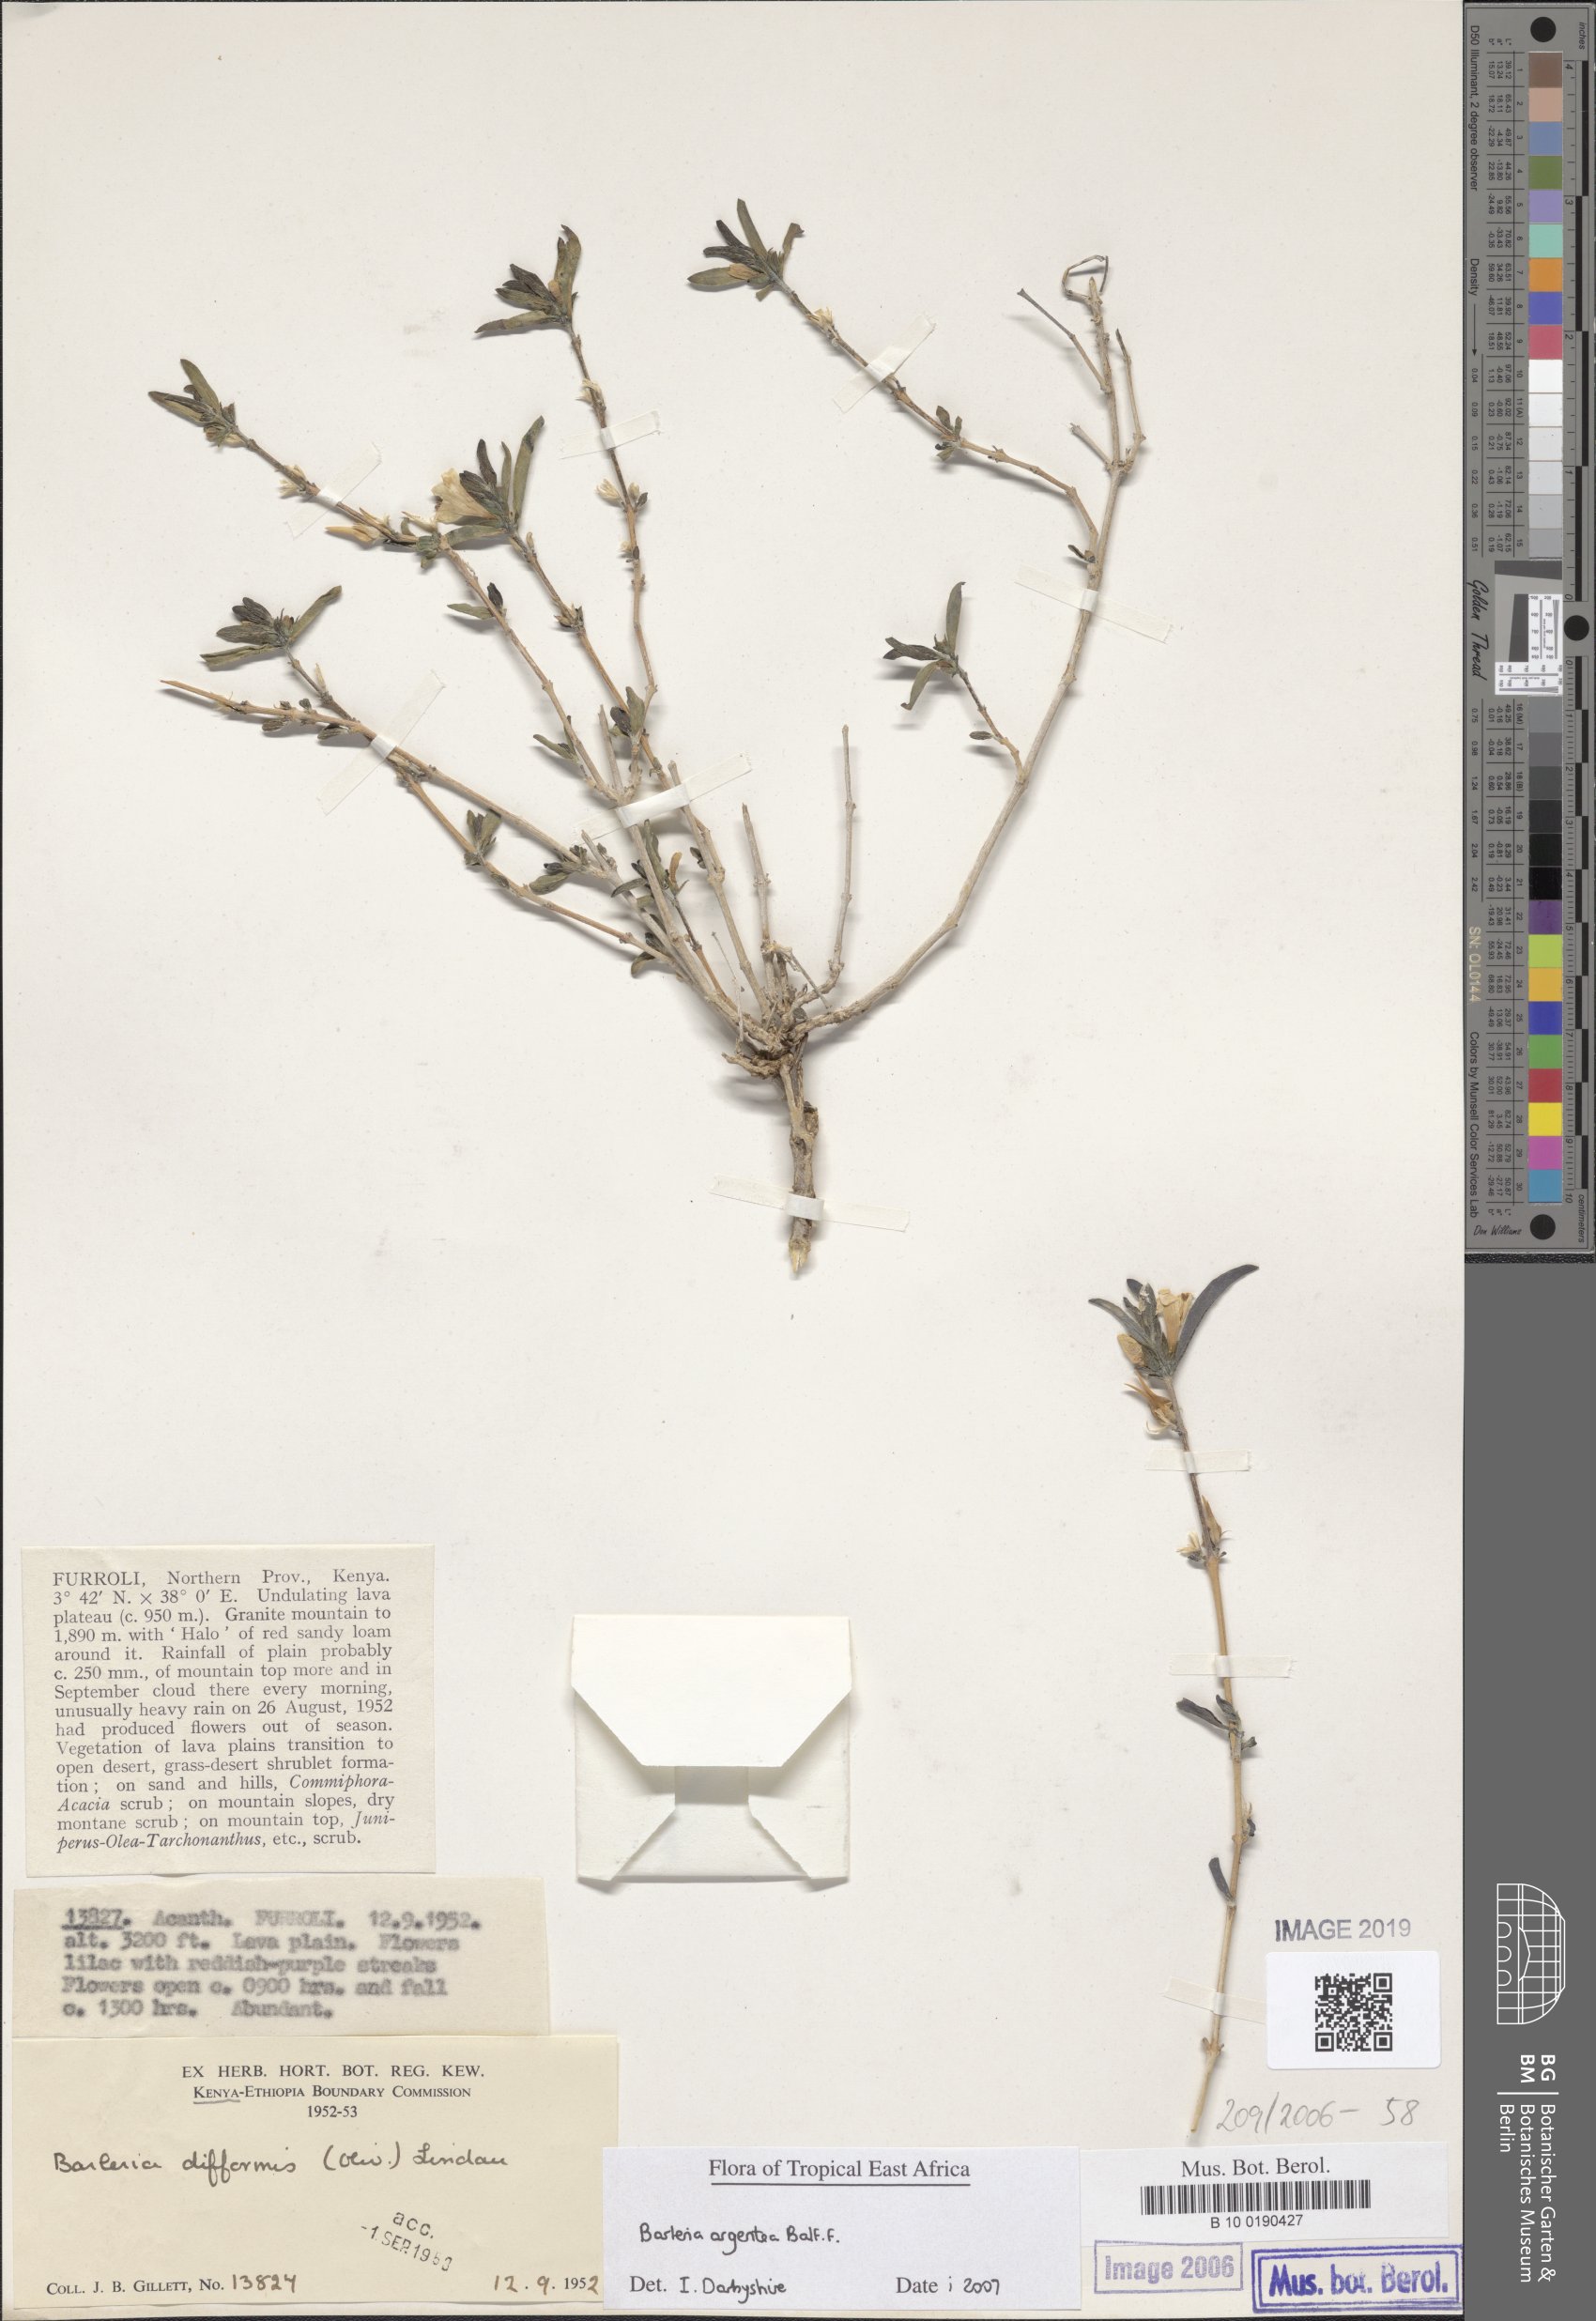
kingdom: Plantae
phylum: Tracheophyta
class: Magnoliopsida
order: Lamiales
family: Acanthaceae
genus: Barleria
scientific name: Barleria
